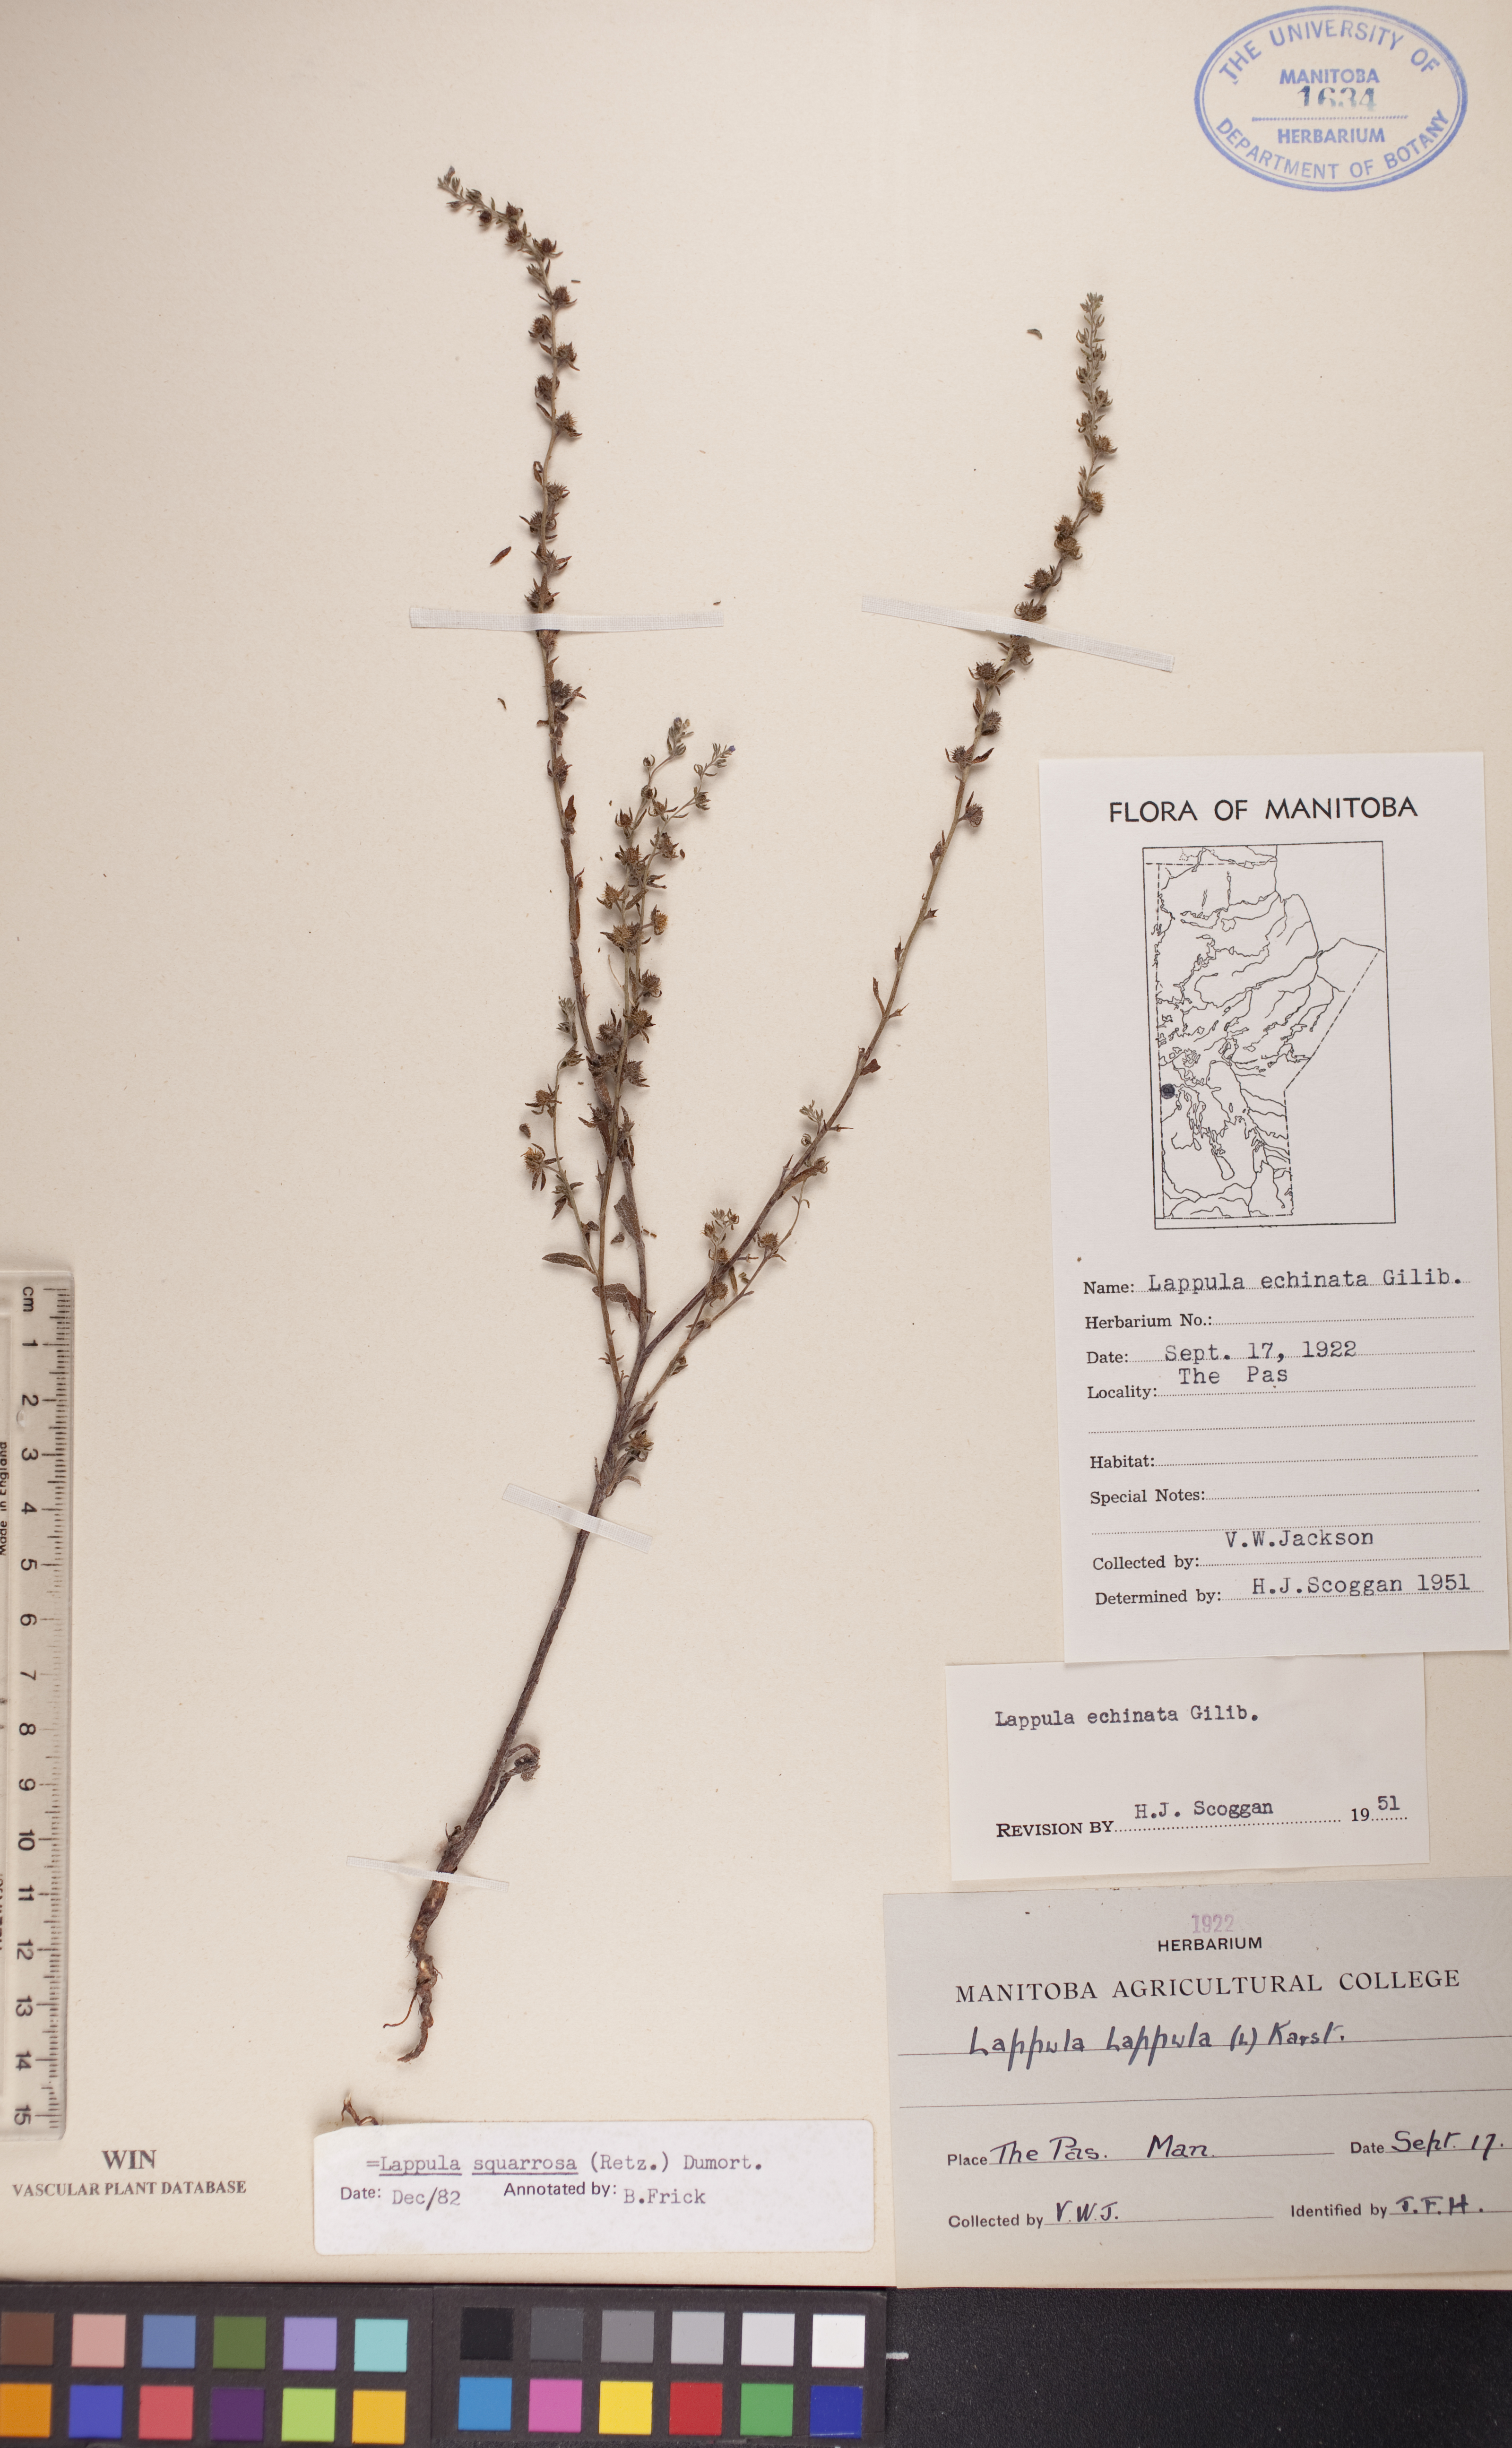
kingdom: Plantae
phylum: Tracheophyta
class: Magnoliopsida
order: Boraginales
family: Boraginaceae
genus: Lappula
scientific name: Lappula squarrosa
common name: European stickseed
